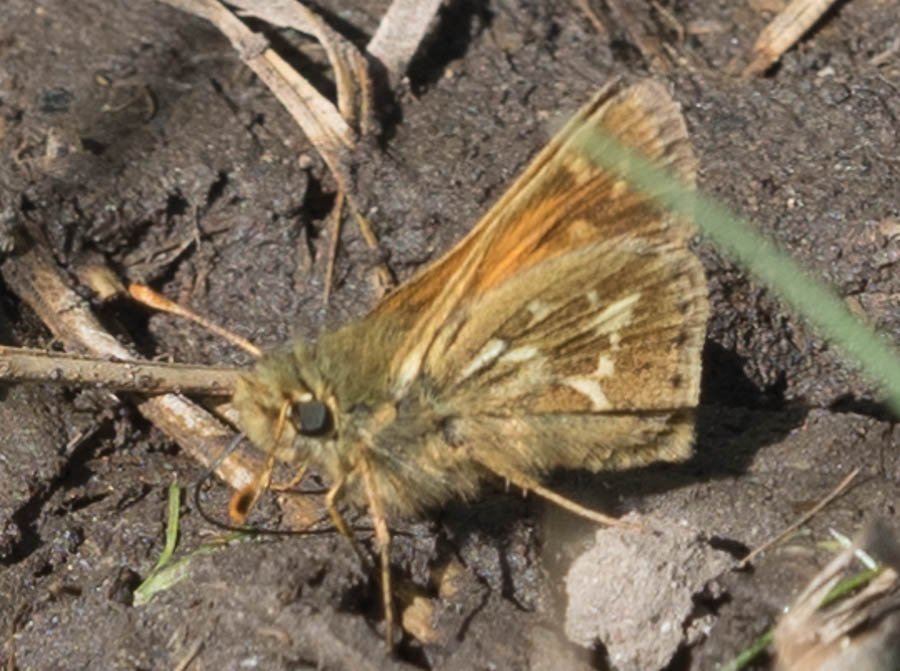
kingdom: Animalia
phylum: Arthropoda
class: Insecta
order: Lepidoptera
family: Hesperiidae
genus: Polites
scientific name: Polites sabuleti
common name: Draco Skipper
